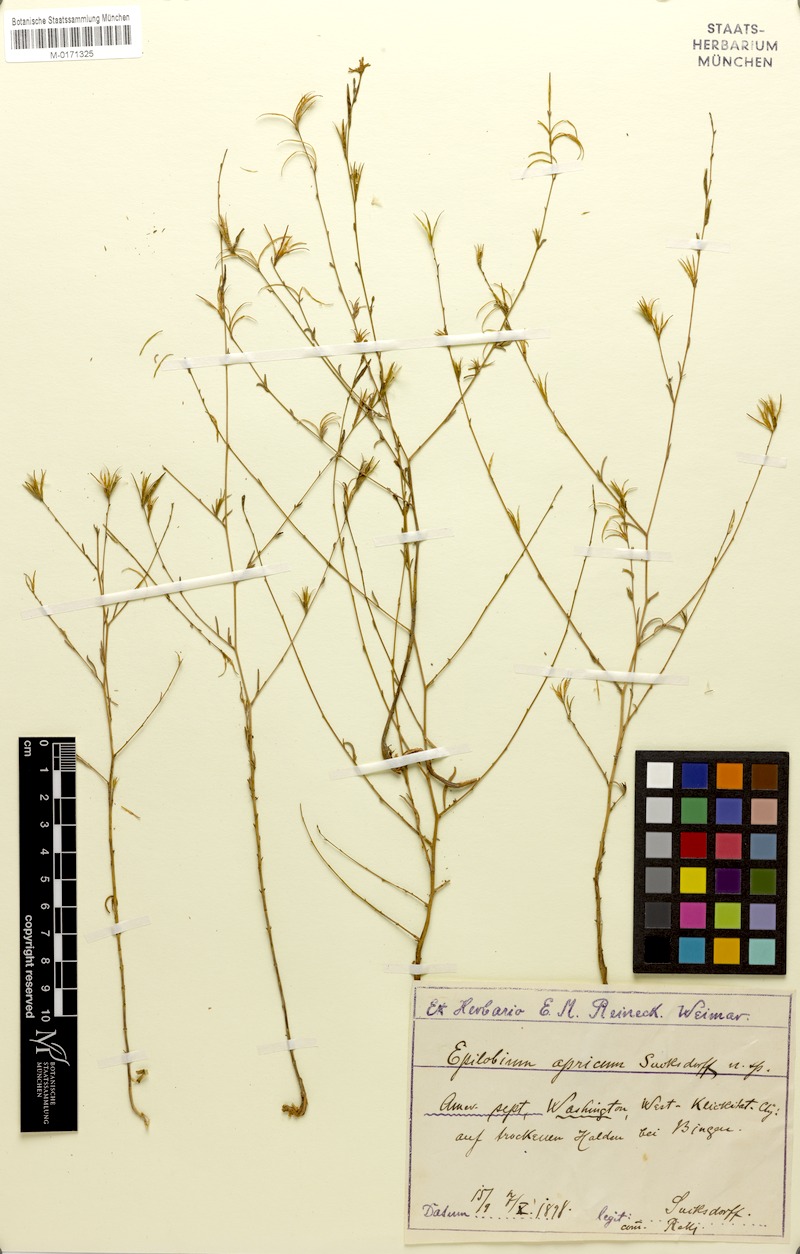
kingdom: Plantae
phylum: Tracheophyta
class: Magnoliopsida
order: Myrtales
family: Onagraceae
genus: Epilobium
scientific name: Epilobium brachycarpum
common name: Annual willowherb
